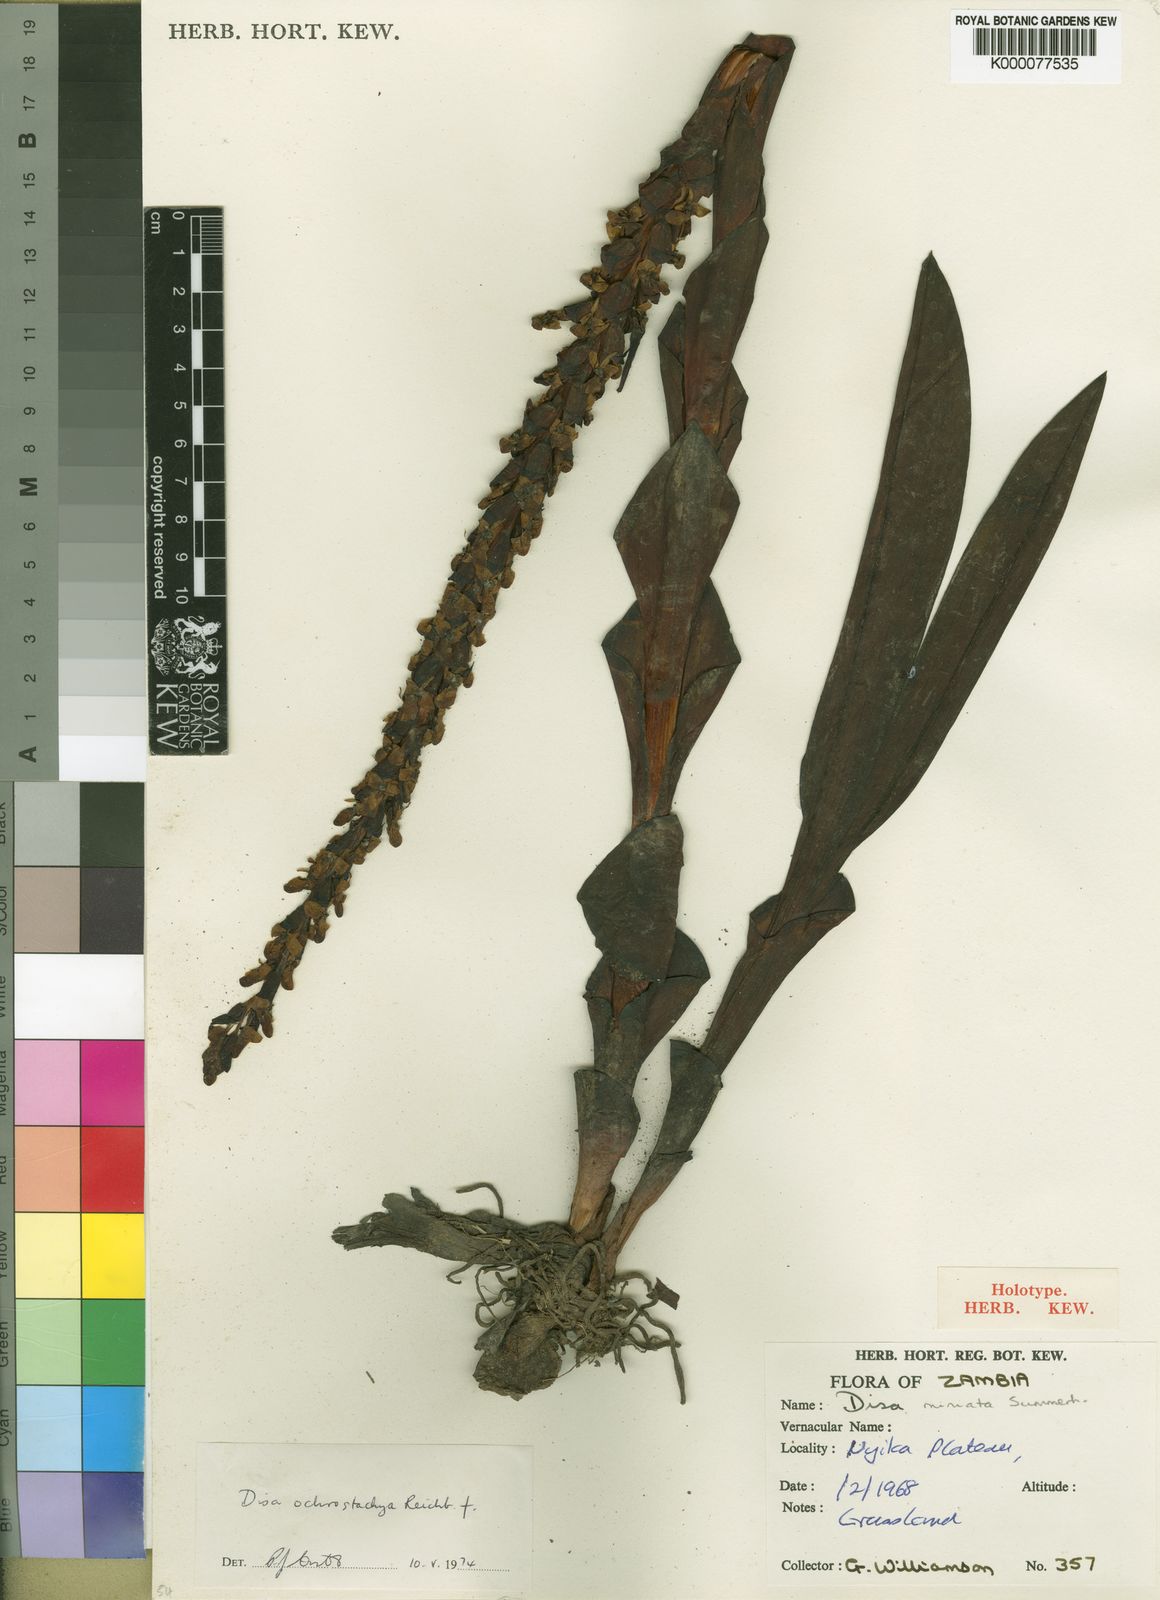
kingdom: Plantae
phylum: Tracheophyta
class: Liliopsida
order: Asparagales
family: Orchidaceae
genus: Disa
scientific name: Disa satyriopsis
